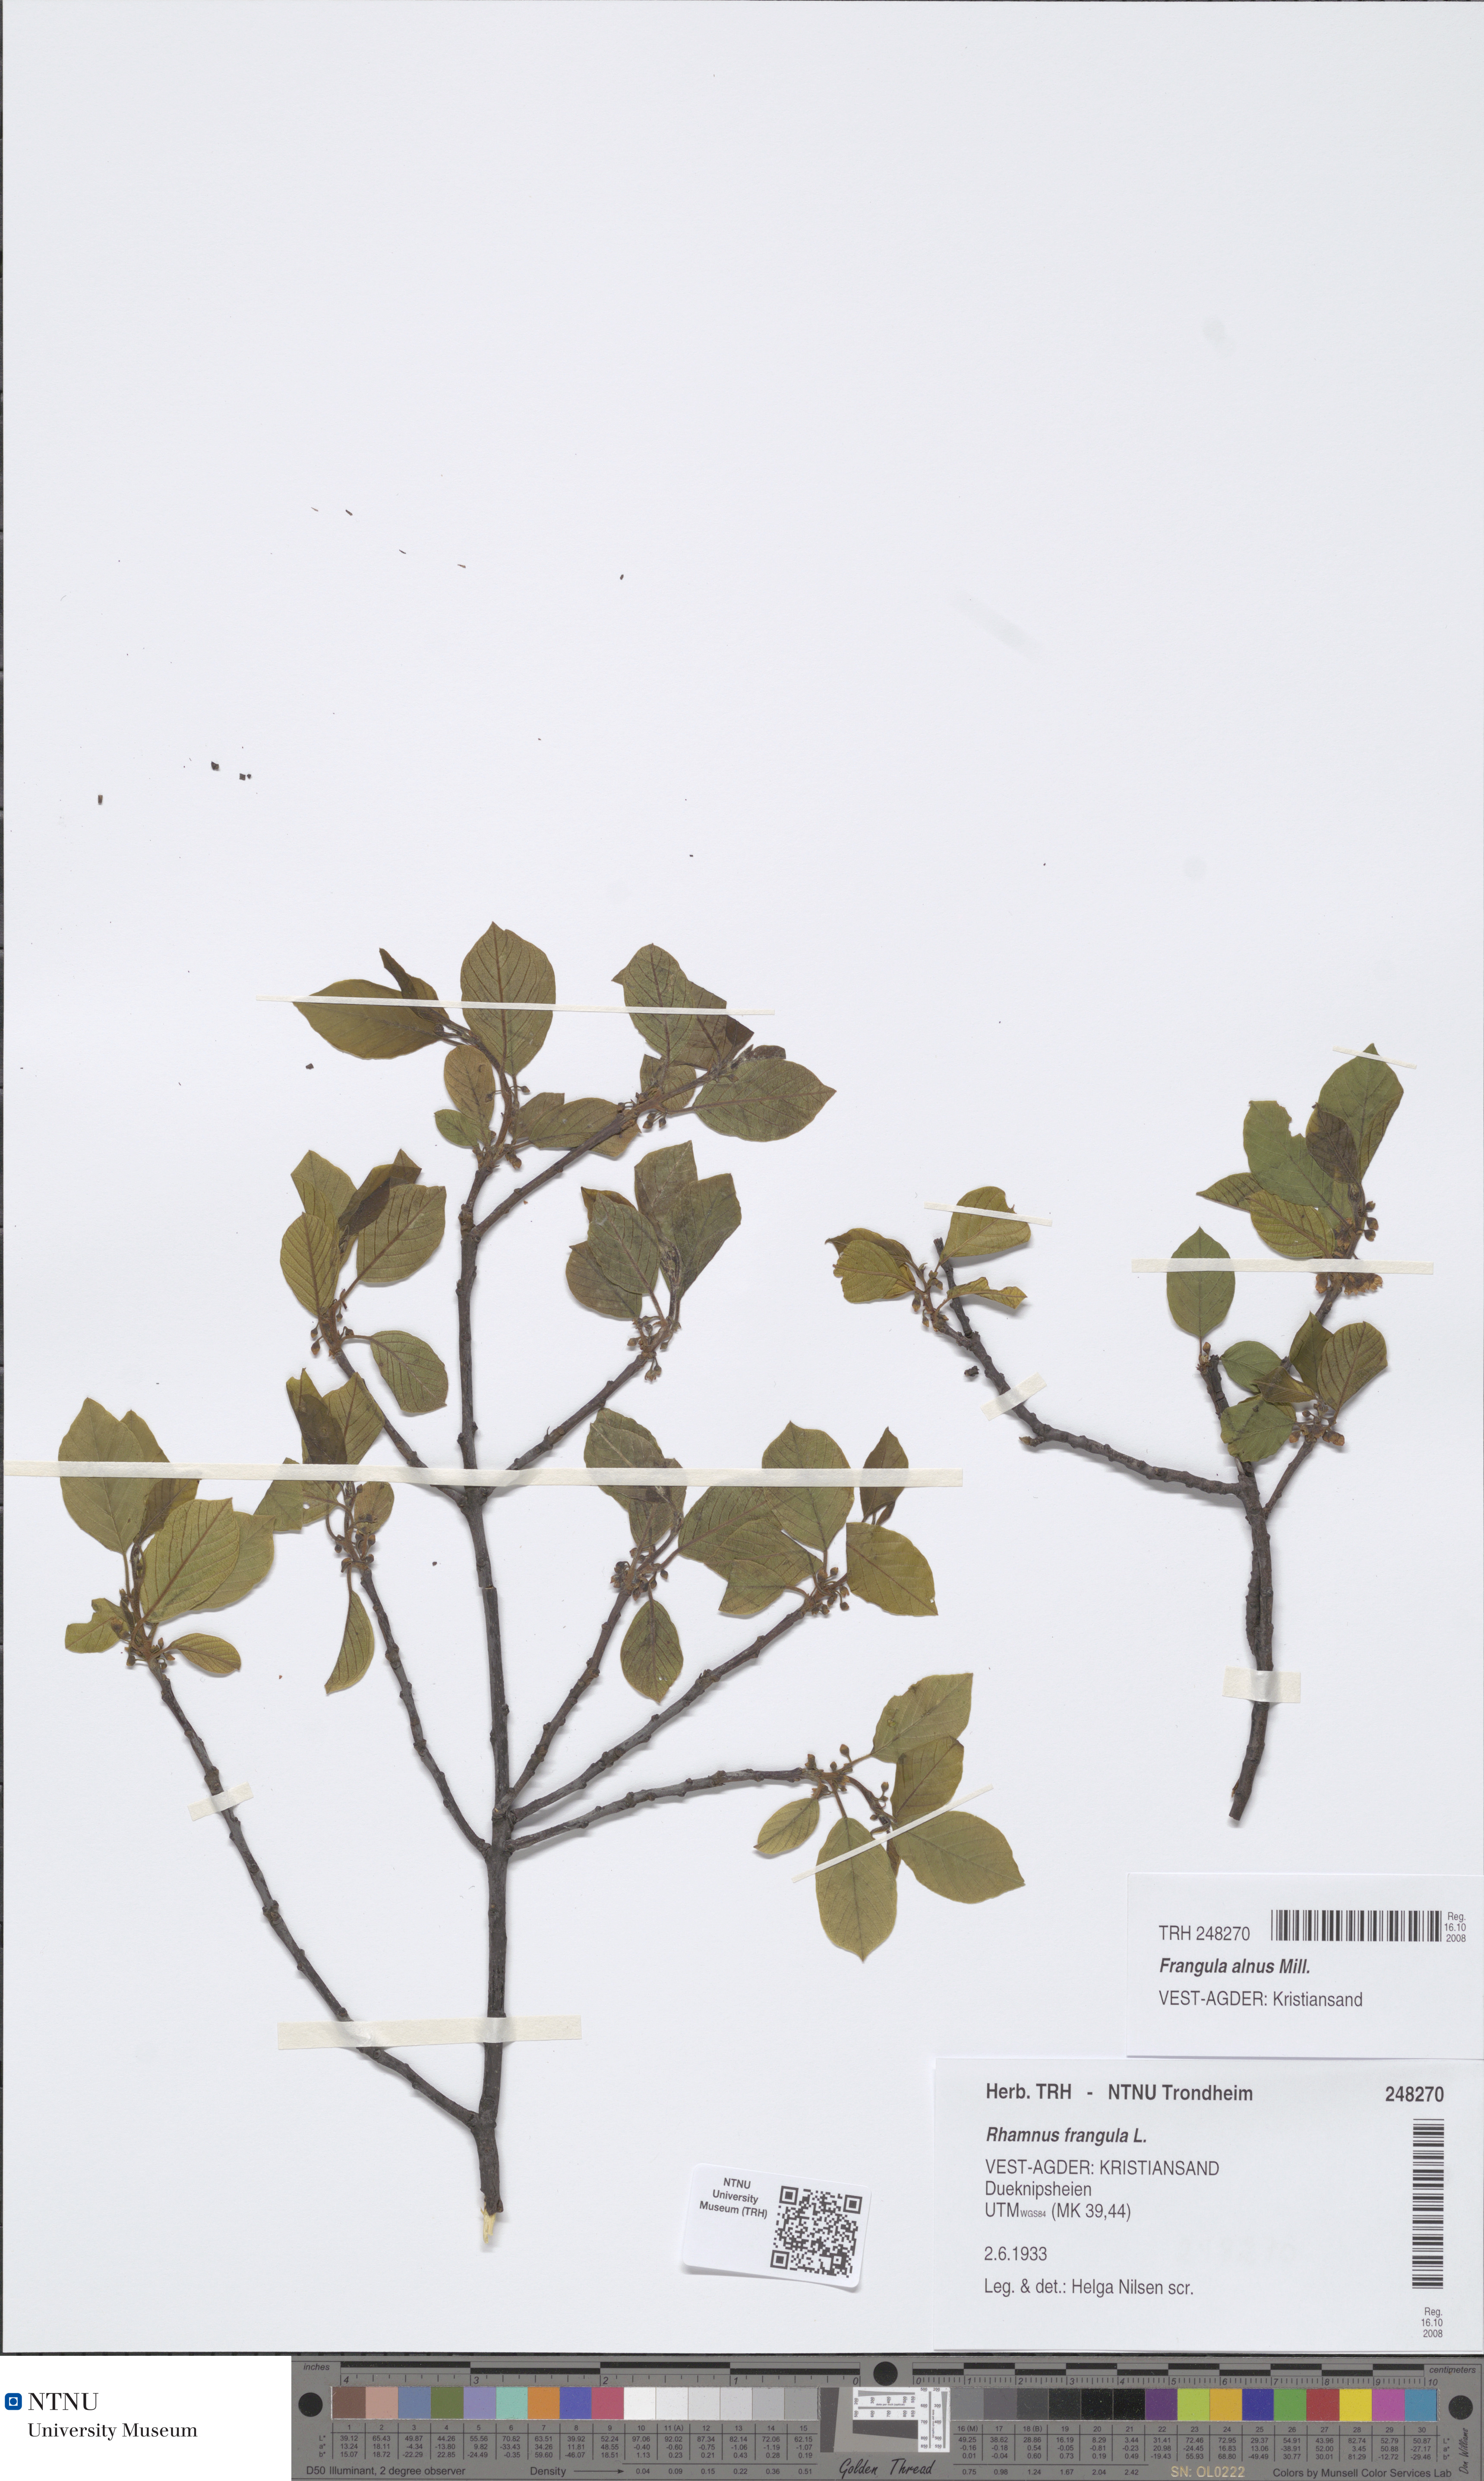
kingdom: Plantae
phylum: Tracheophyta
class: Magnoliopsida
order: Rosales
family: Rhamnaceae
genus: Frangula
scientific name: Frangula alnus
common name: Alder buckthorn
